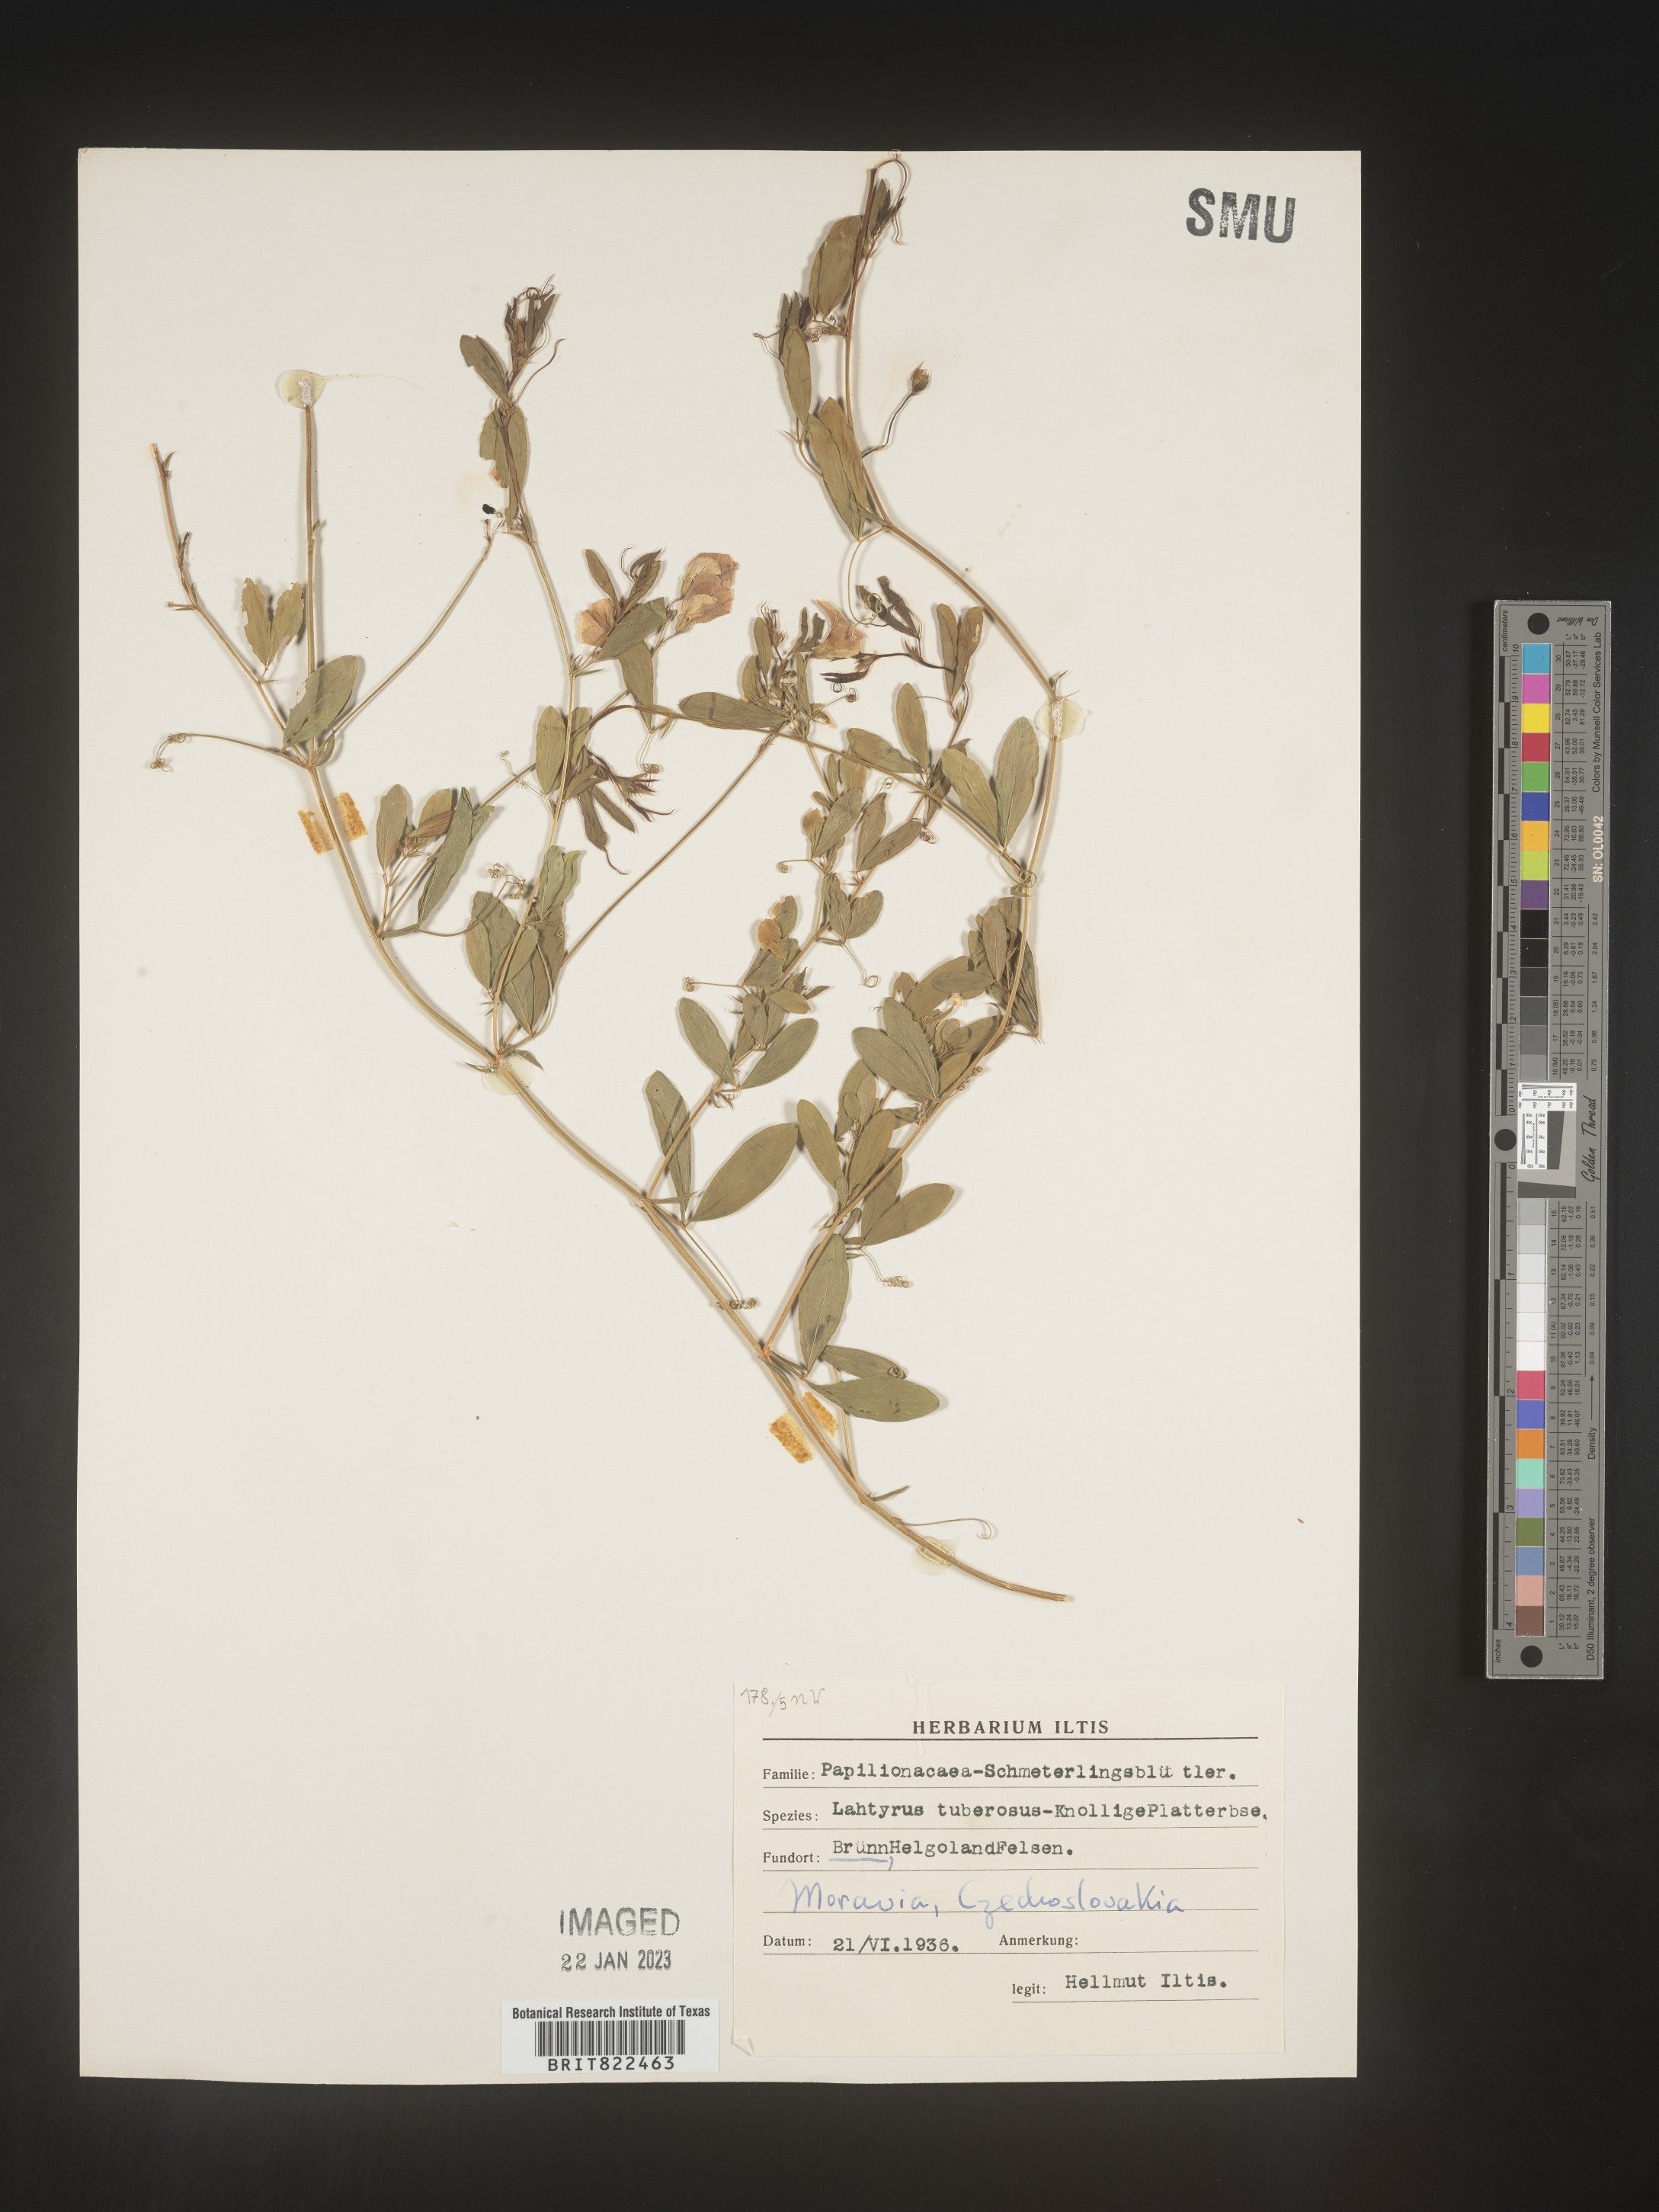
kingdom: Plantae
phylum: Tracheophyta
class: Magnoliopsida
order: Fabales
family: Fabaceae
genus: Lathyrus
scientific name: Lathyrus
